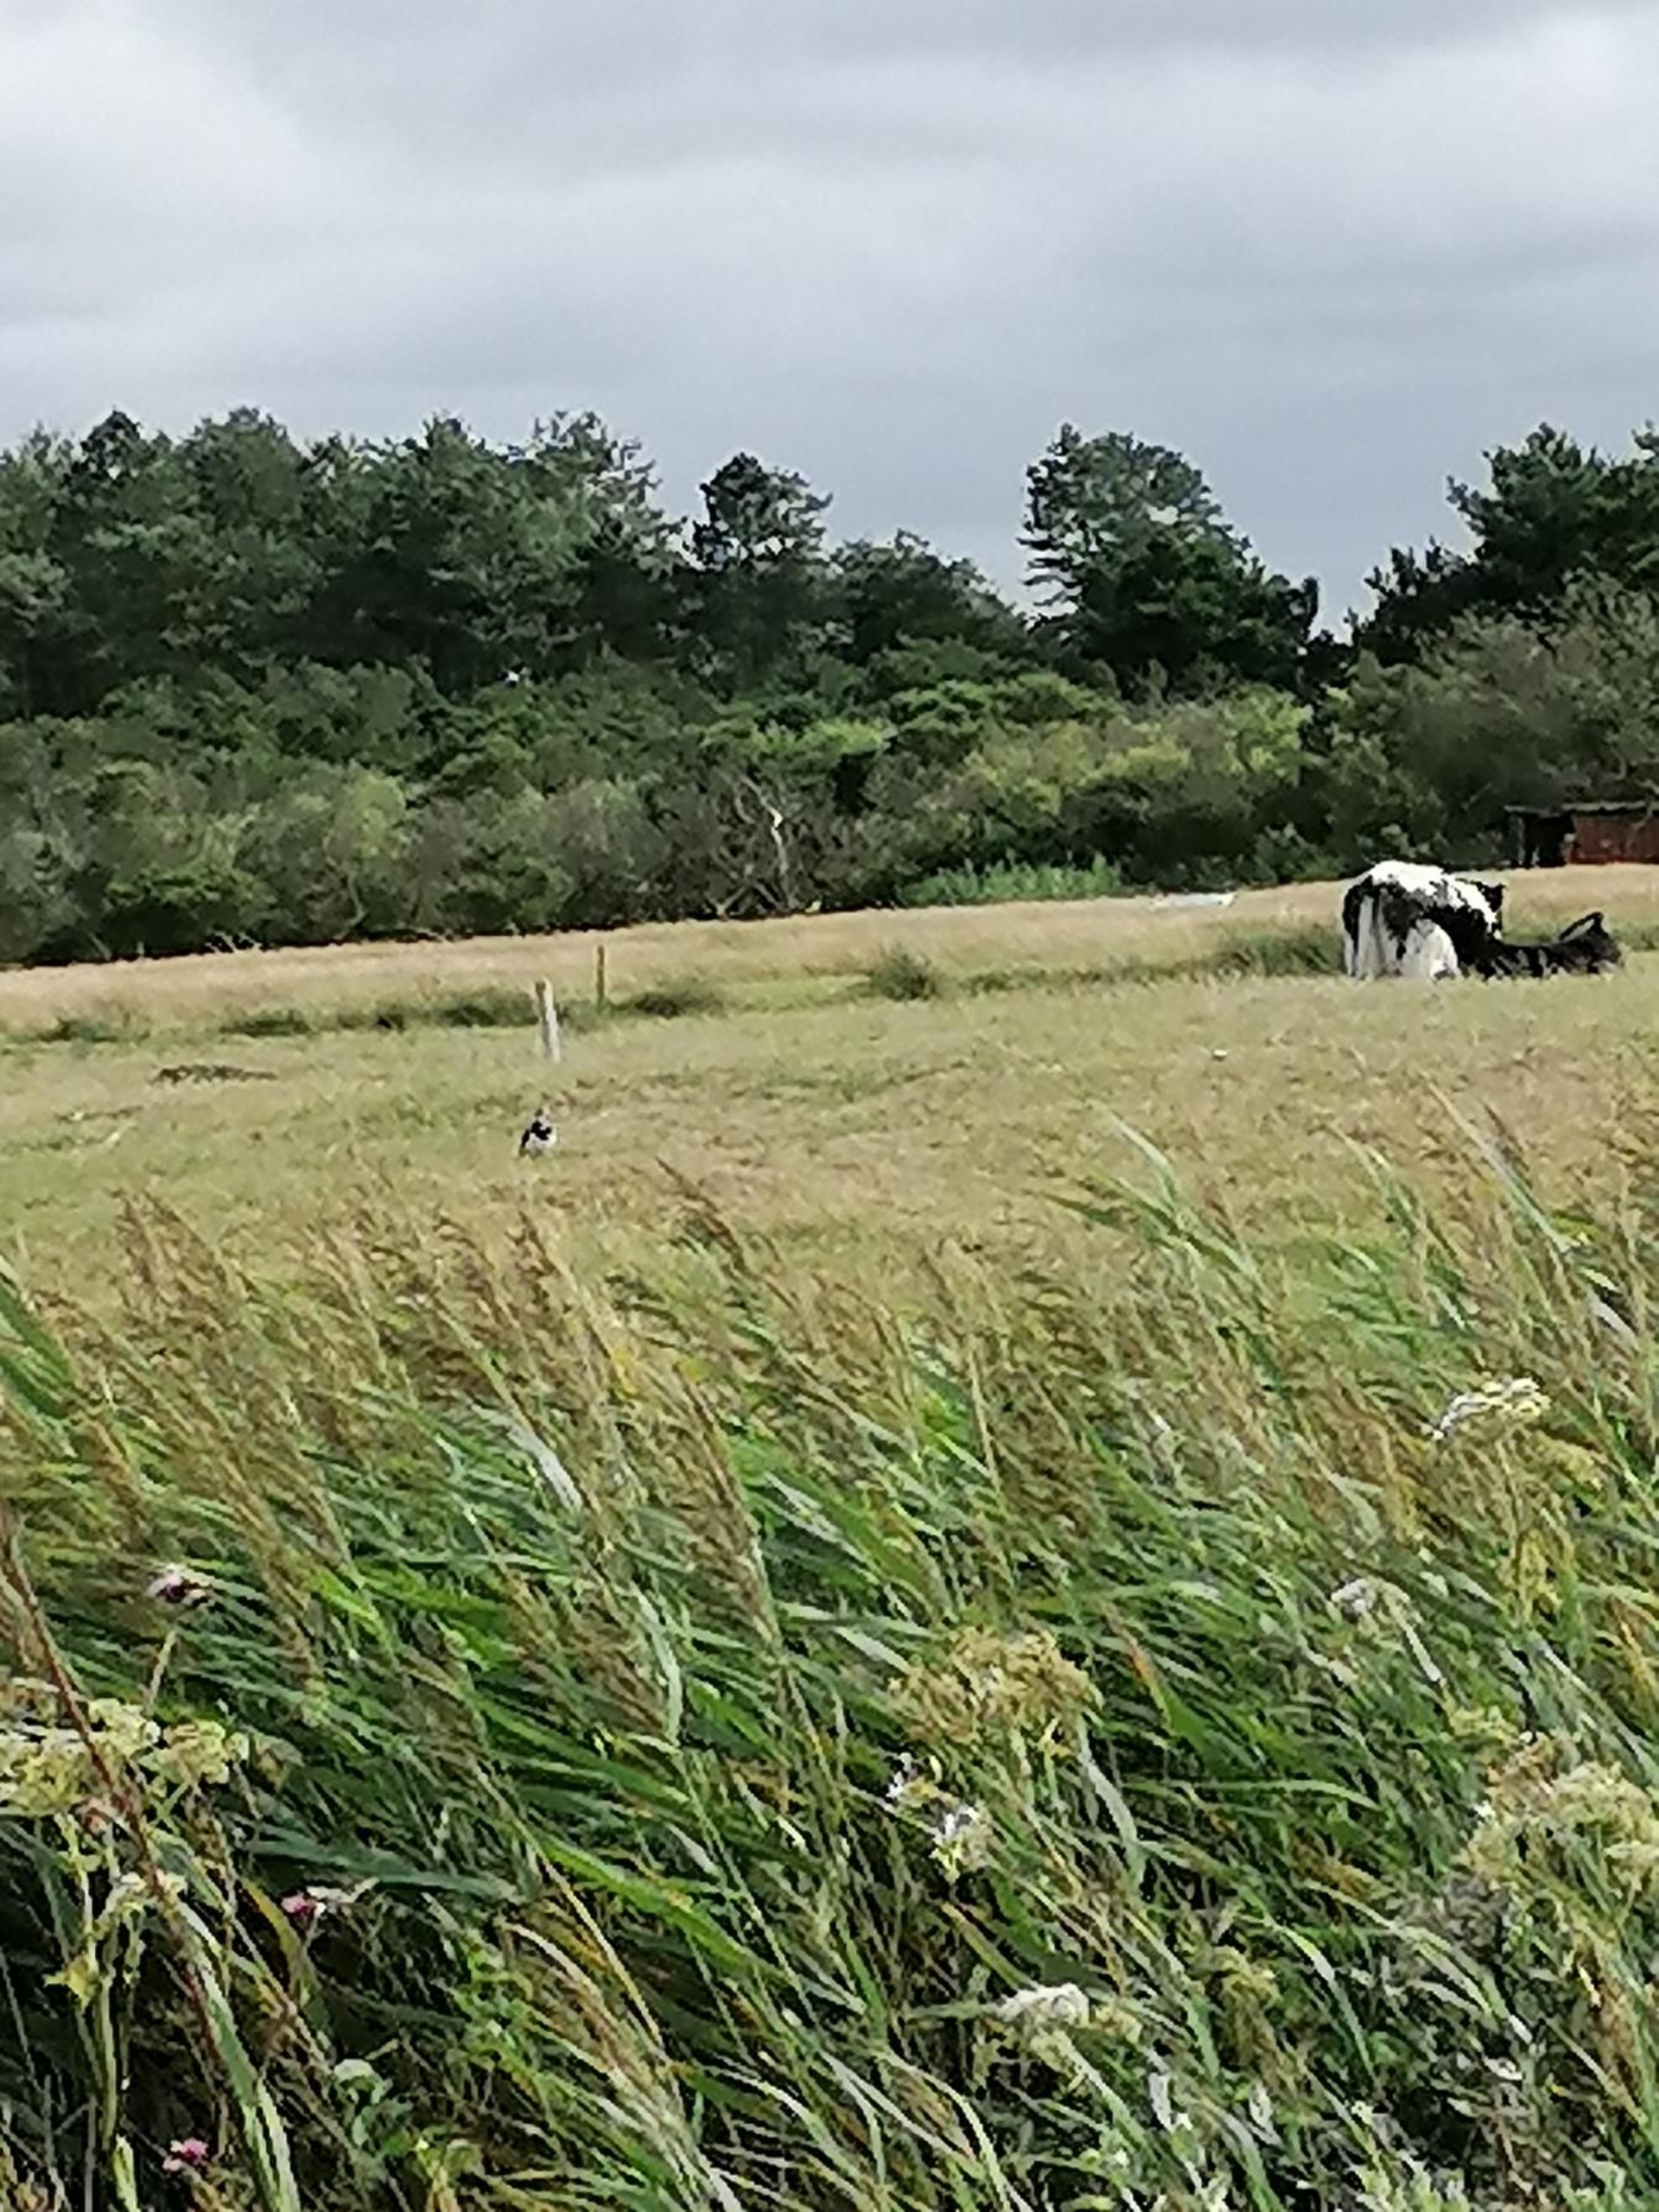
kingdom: Animalia
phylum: Chordata
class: Aves
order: Charadriiformes
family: Charadriidae
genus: Vanellus
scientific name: Vanellus vanellus
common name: Vibe
